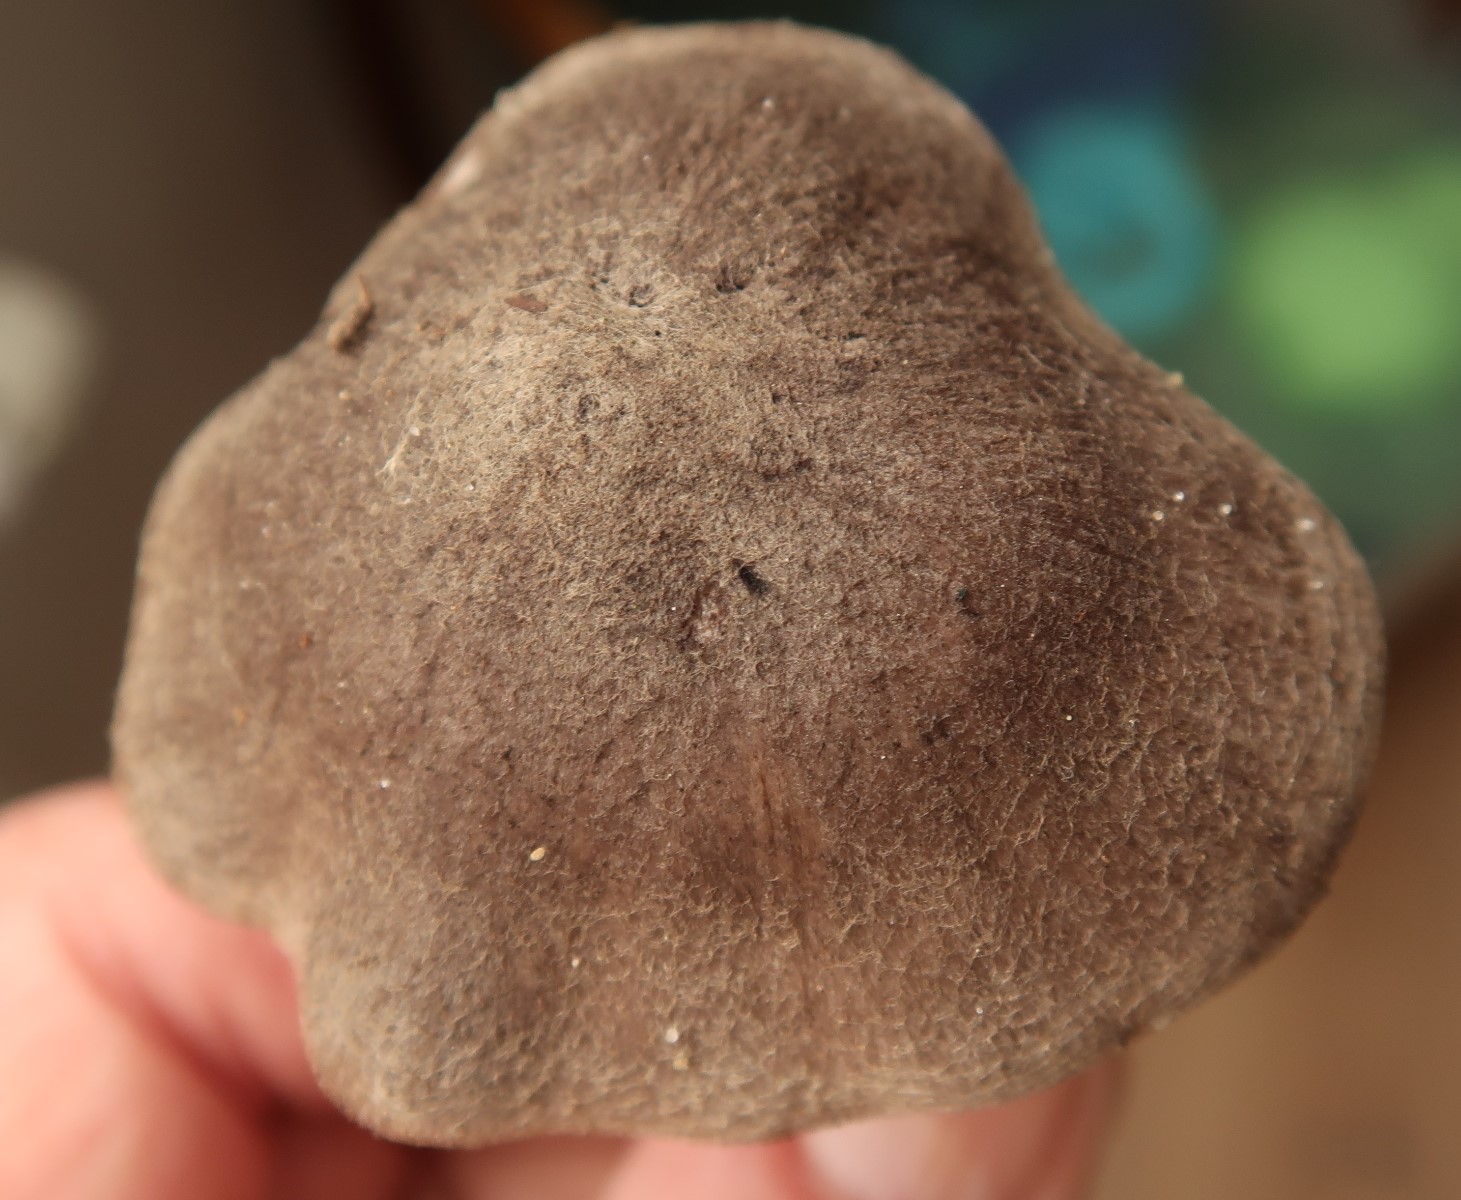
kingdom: Fungi
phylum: Basidiomycota
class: Agaricomycetes
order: Agaricales
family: Tricholomataceae
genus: Tricholoma
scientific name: Tricholoma terreum
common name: jordfarvet ridderhat
